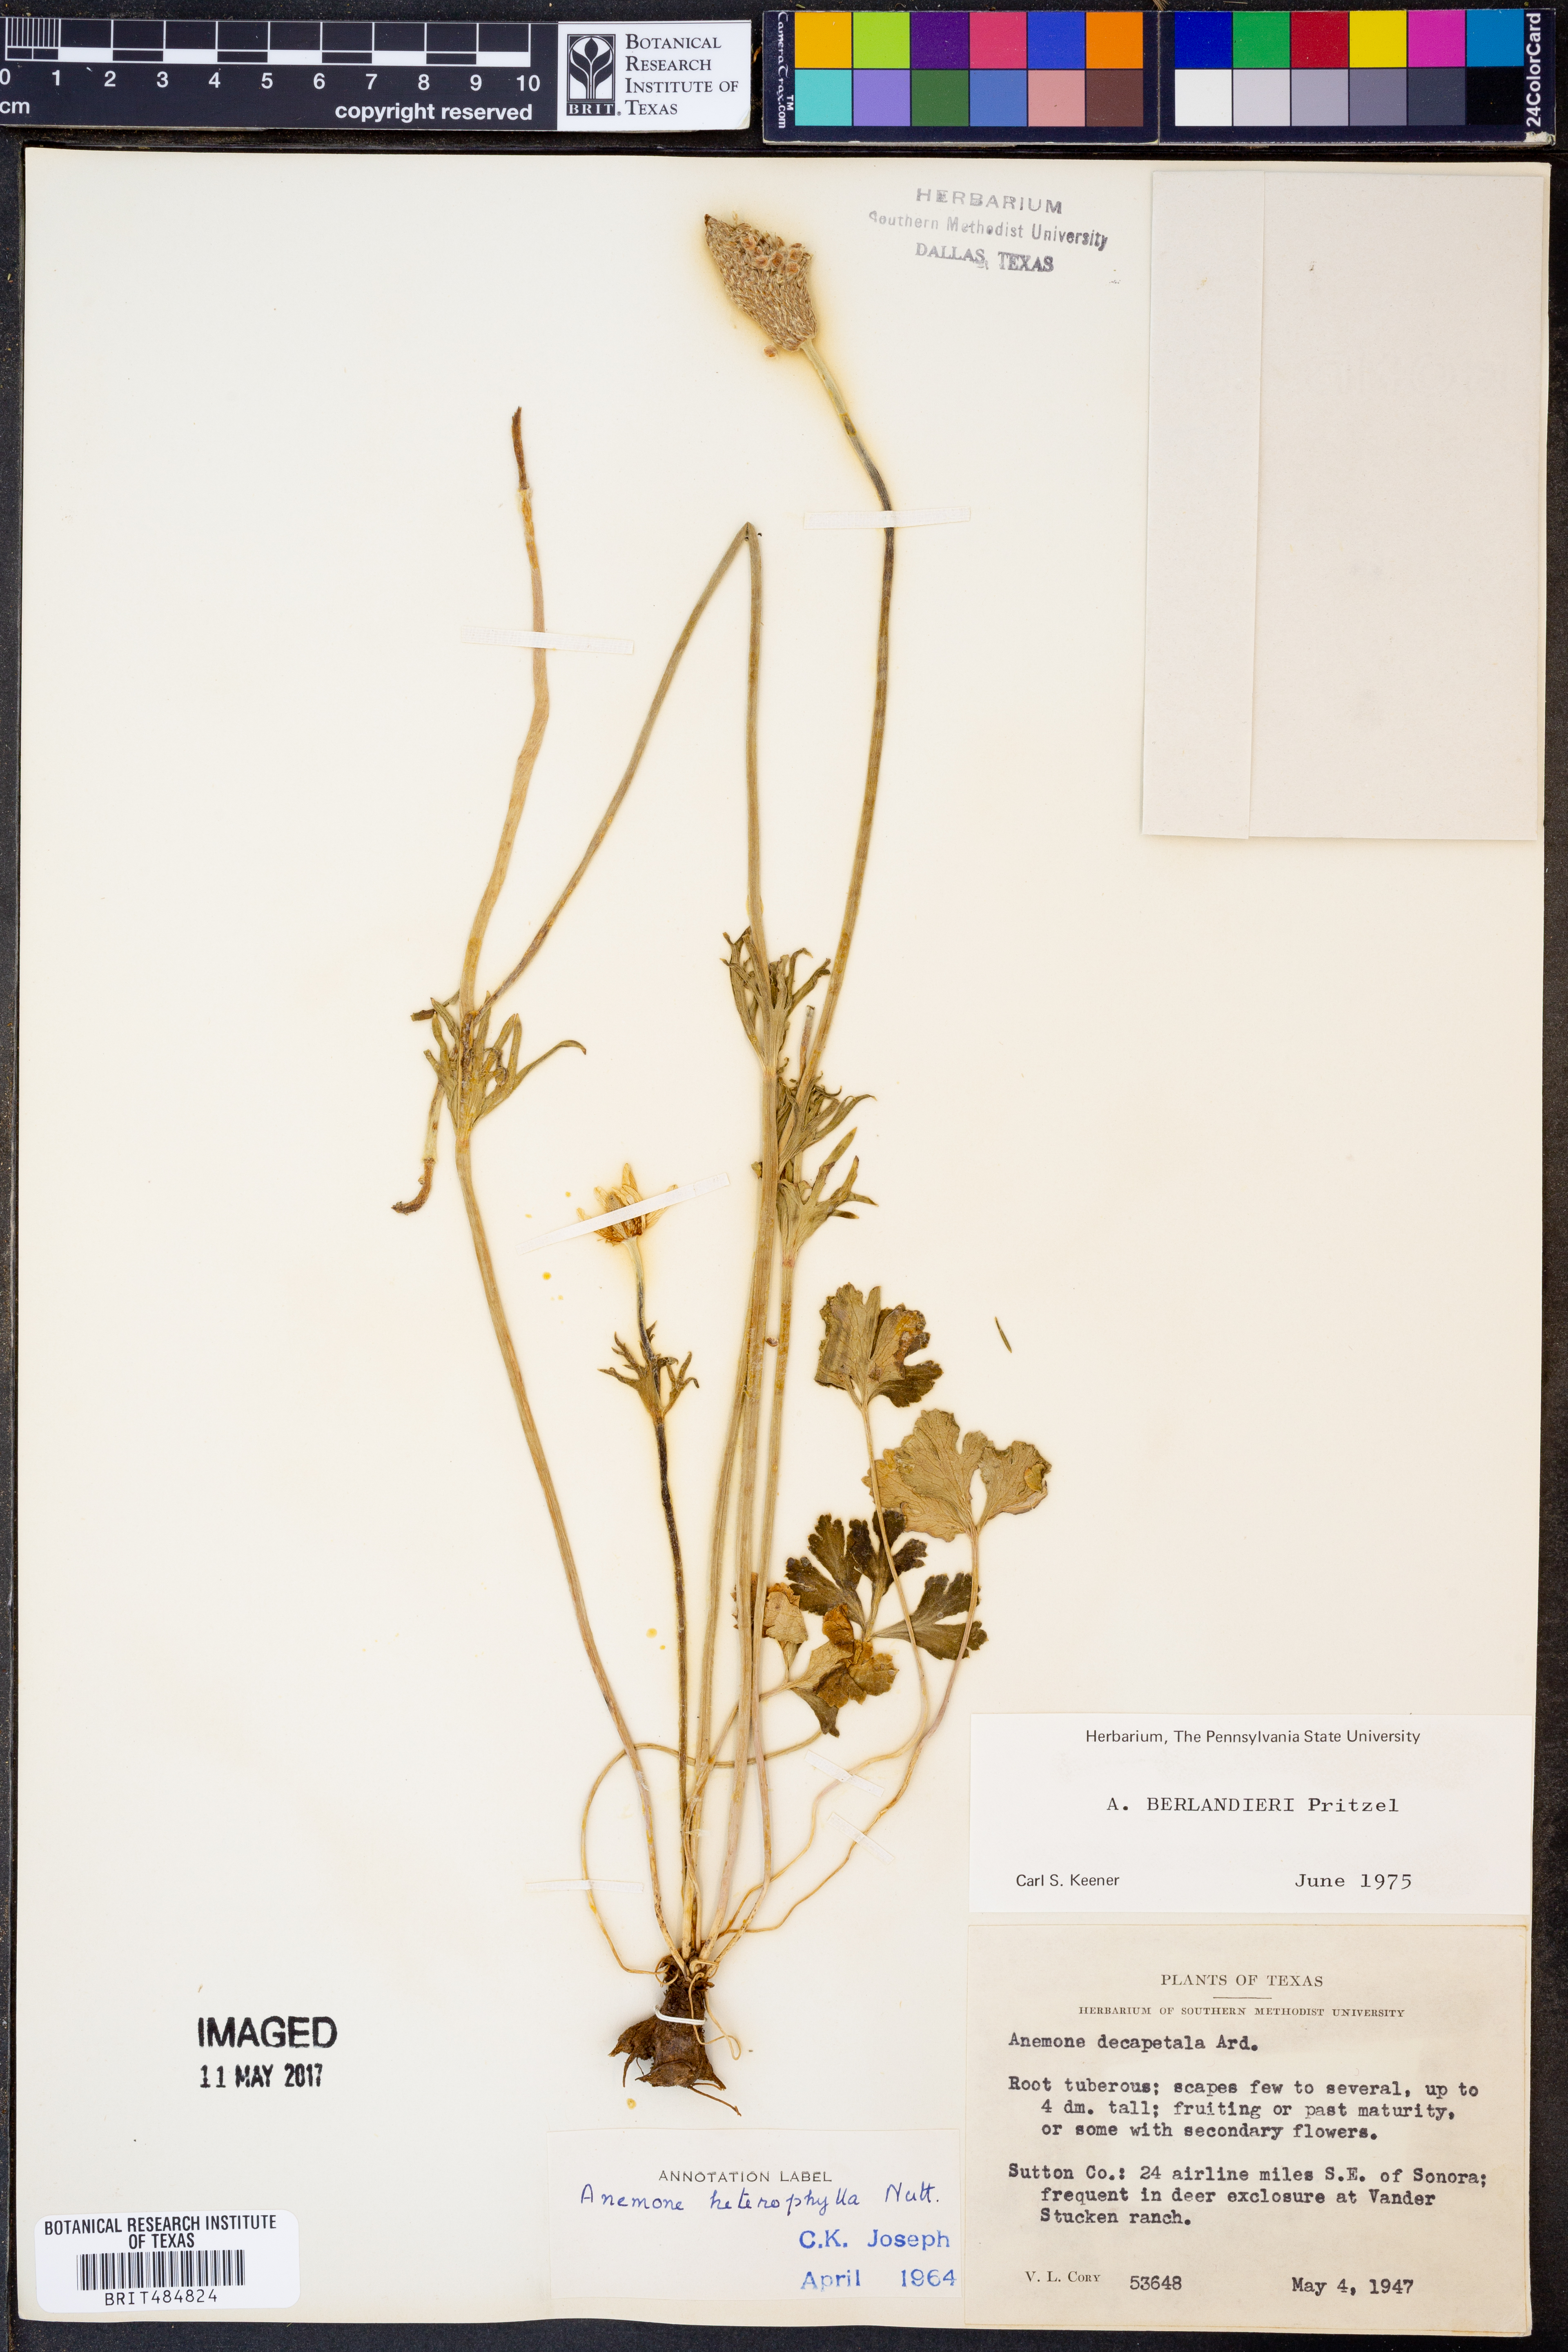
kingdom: Plantae
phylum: Tracheophyta
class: Magnoliopsida
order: Ranunculales
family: Ranunculaceae
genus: Anemone
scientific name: Anemone decapetala
